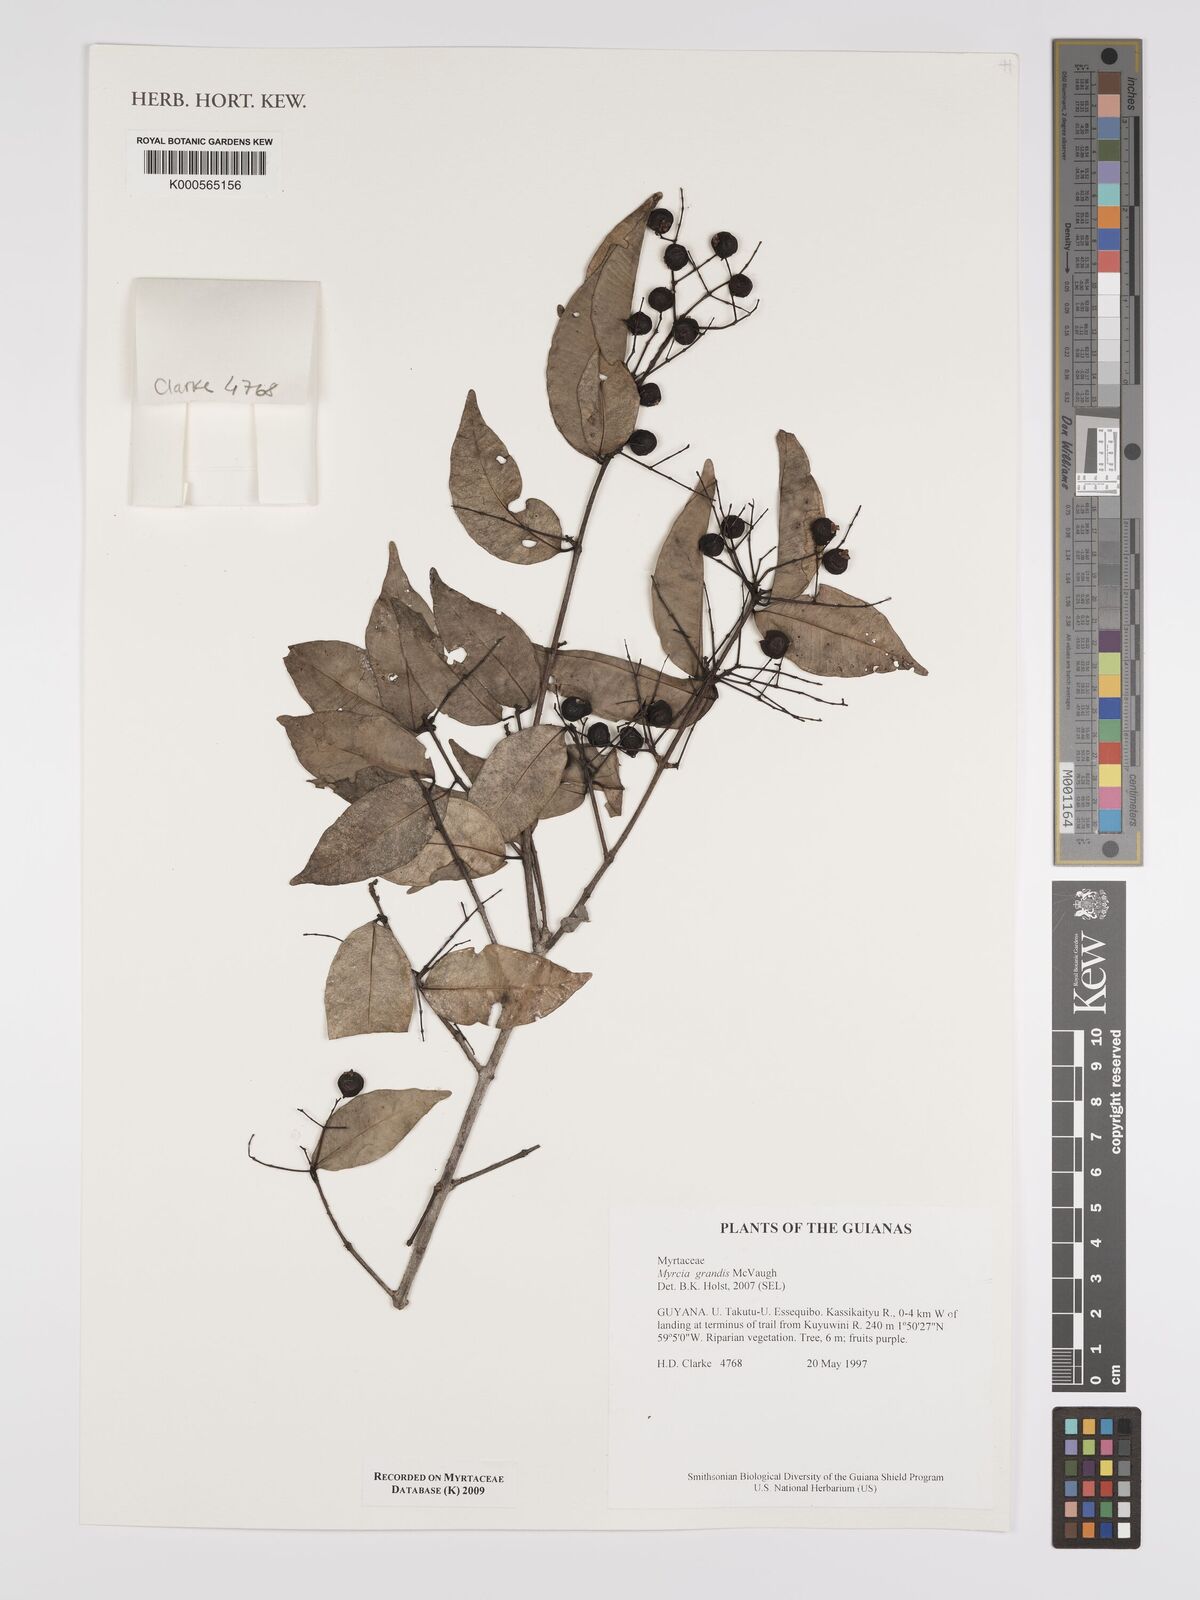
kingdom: Plantae
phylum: Tracheophyta
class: Magnoliopsida
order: Myrtales
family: Myrtaceae
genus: Myrcia
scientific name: Myrcia grandis
